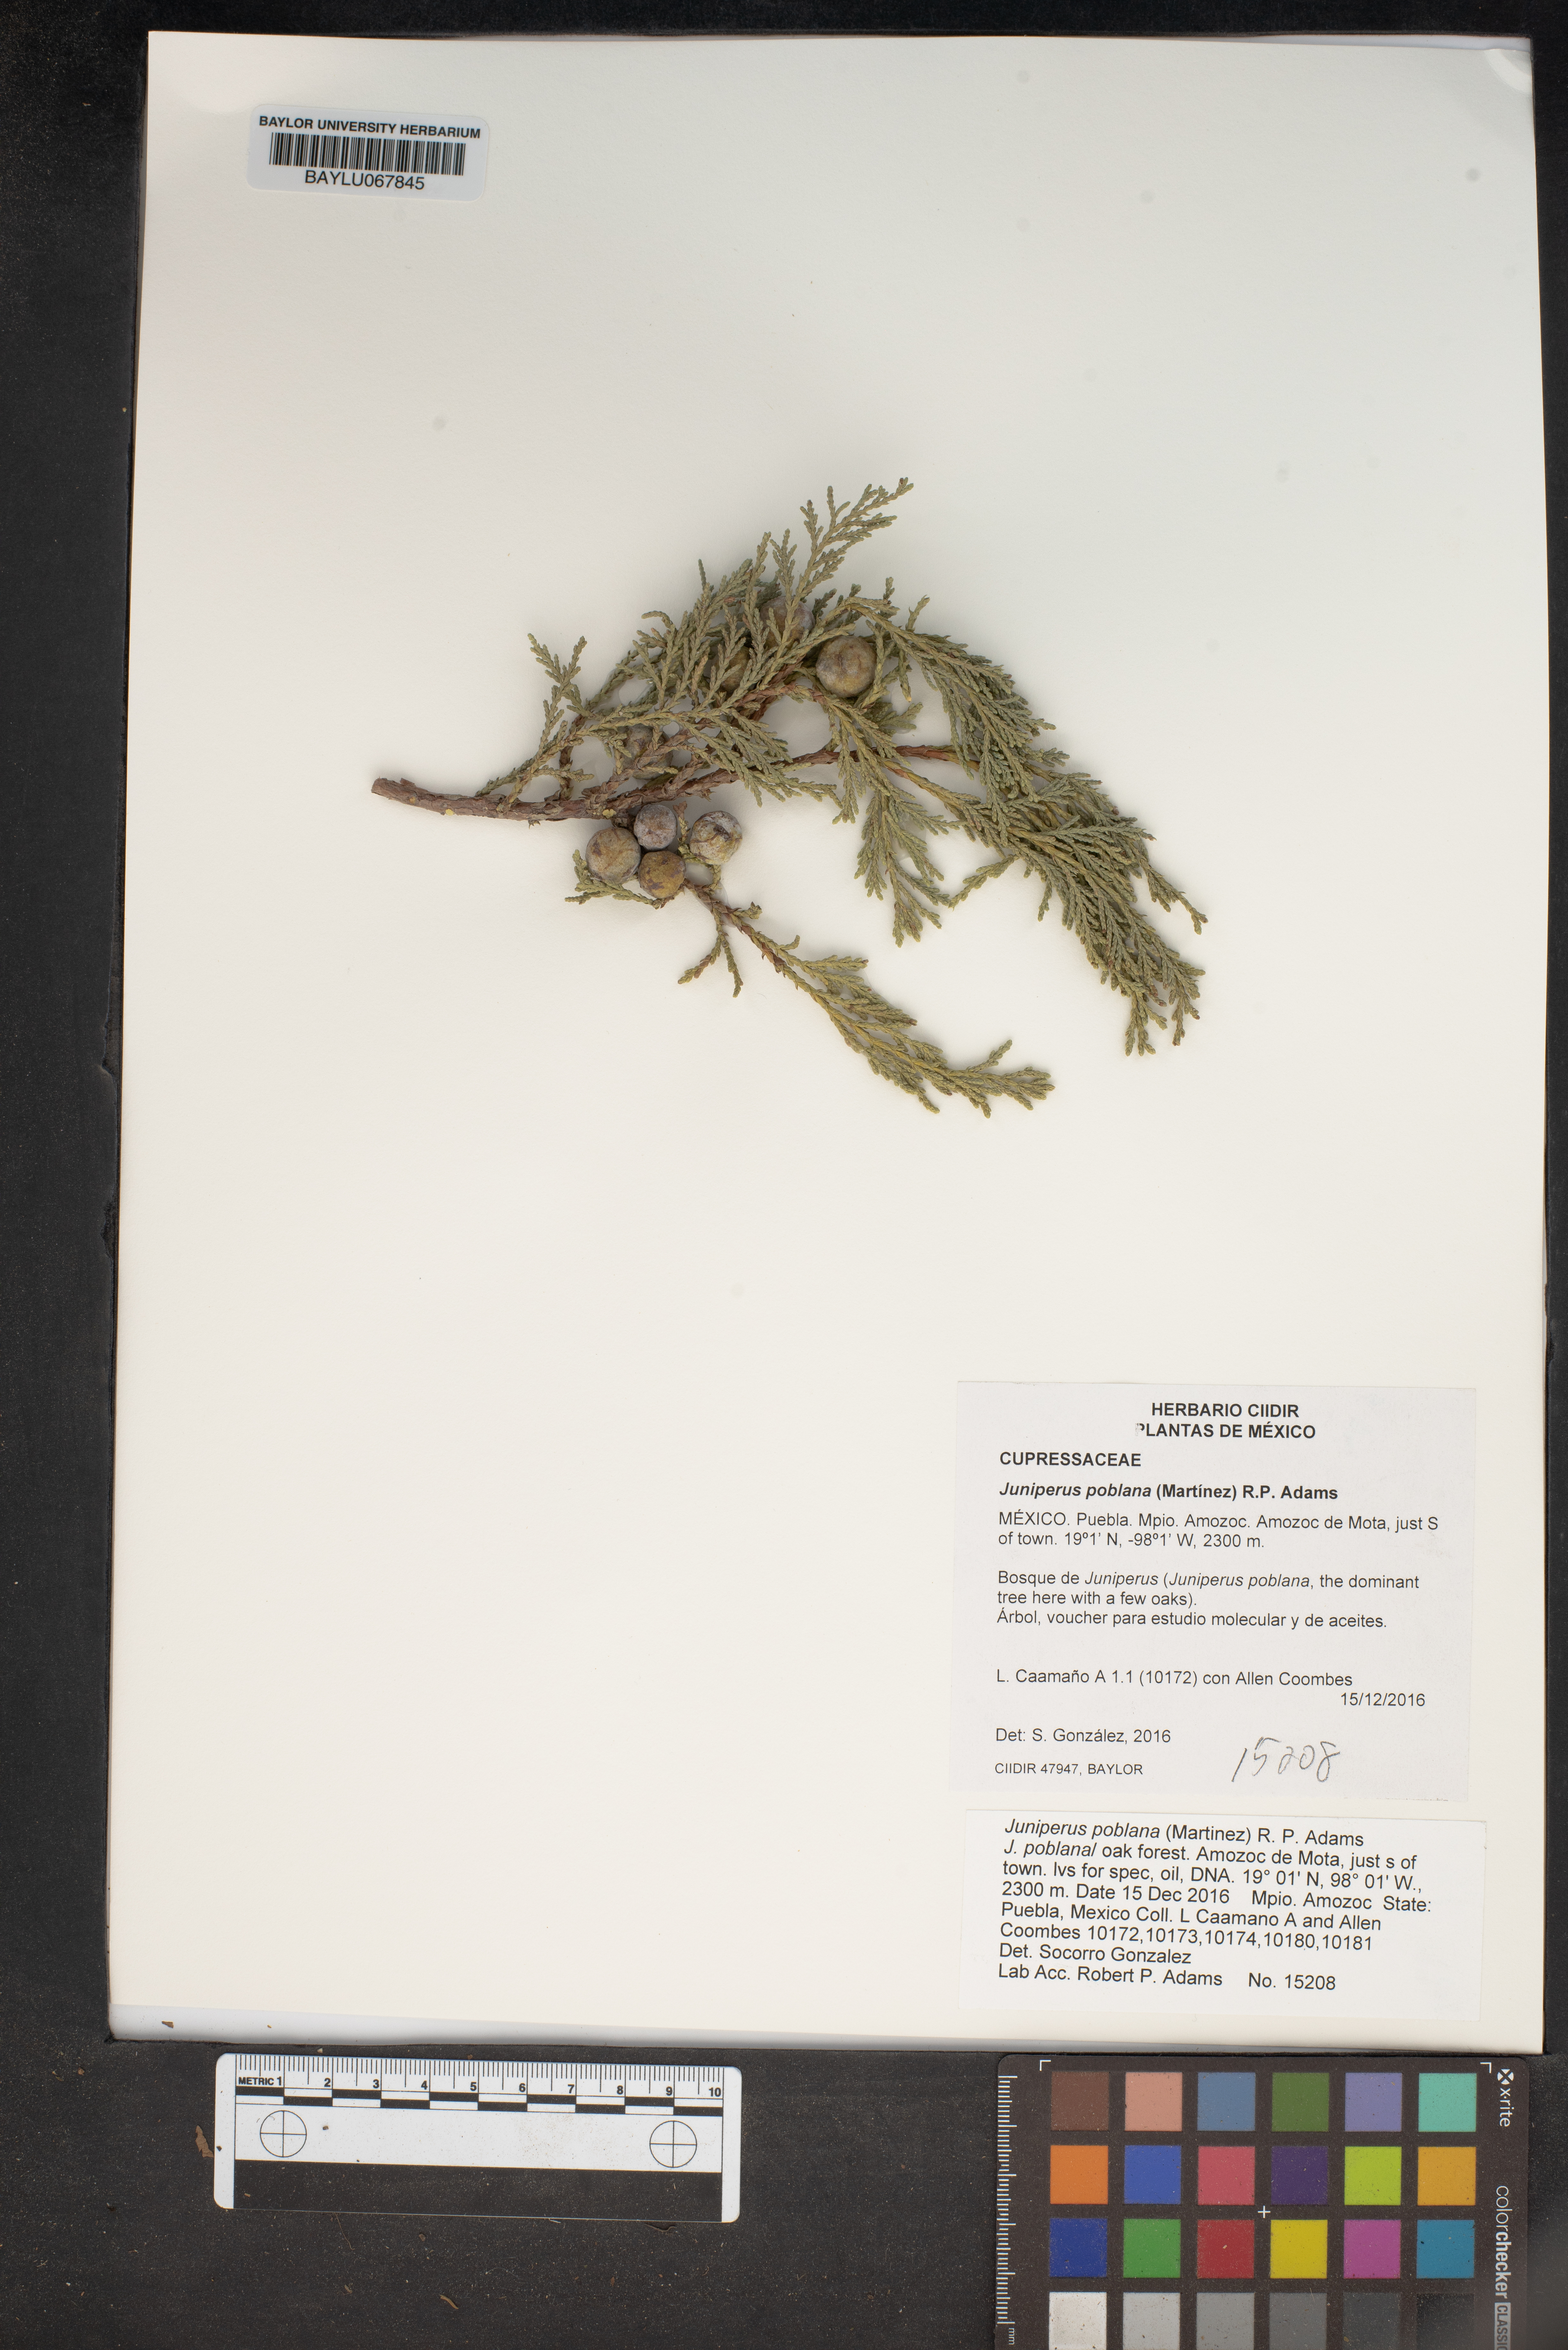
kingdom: Plantae
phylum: Tracheophyta
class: Pinopsida
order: Pinales
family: Cupressaceae
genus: Juniperus
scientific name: Juniperus flaccida
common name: Drooping juniper
